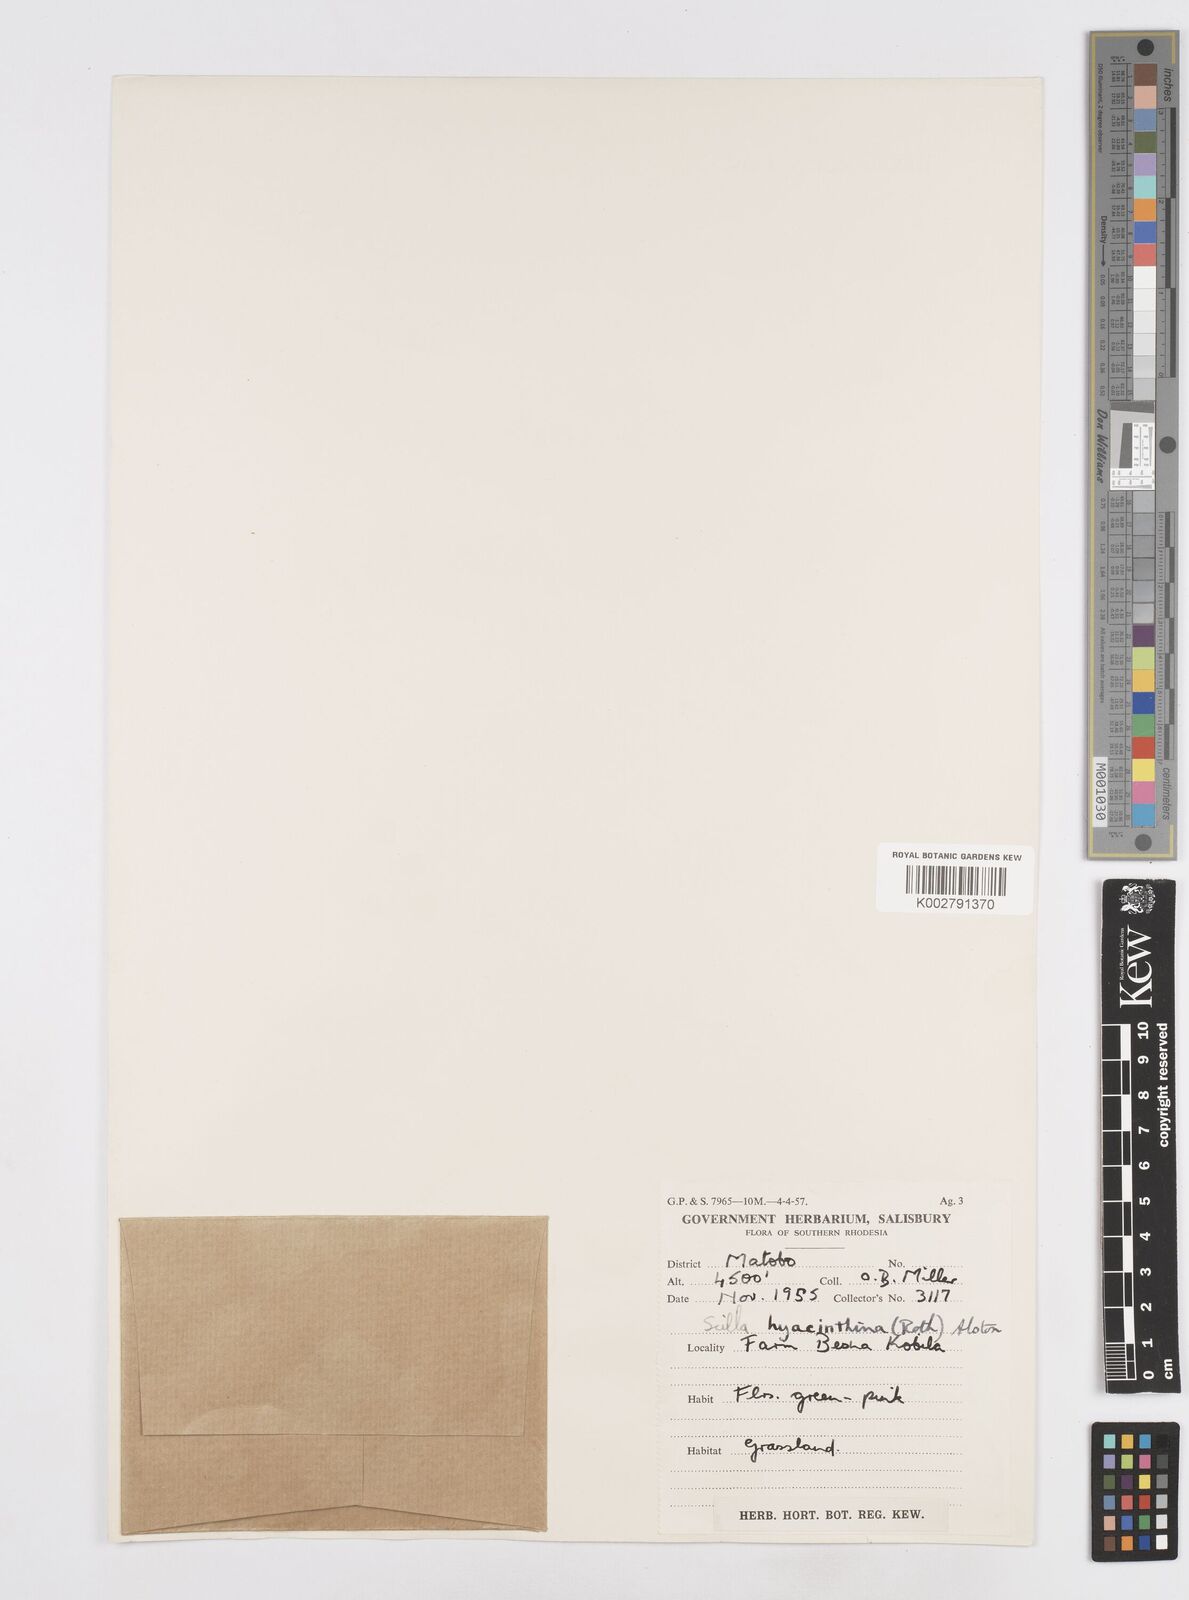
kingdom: Plantae
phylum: Tracheophyta
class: Liliopsida
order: Asparagales
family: Asparagaceae
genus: Ledebouria
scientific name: Ledebouria revoluta
